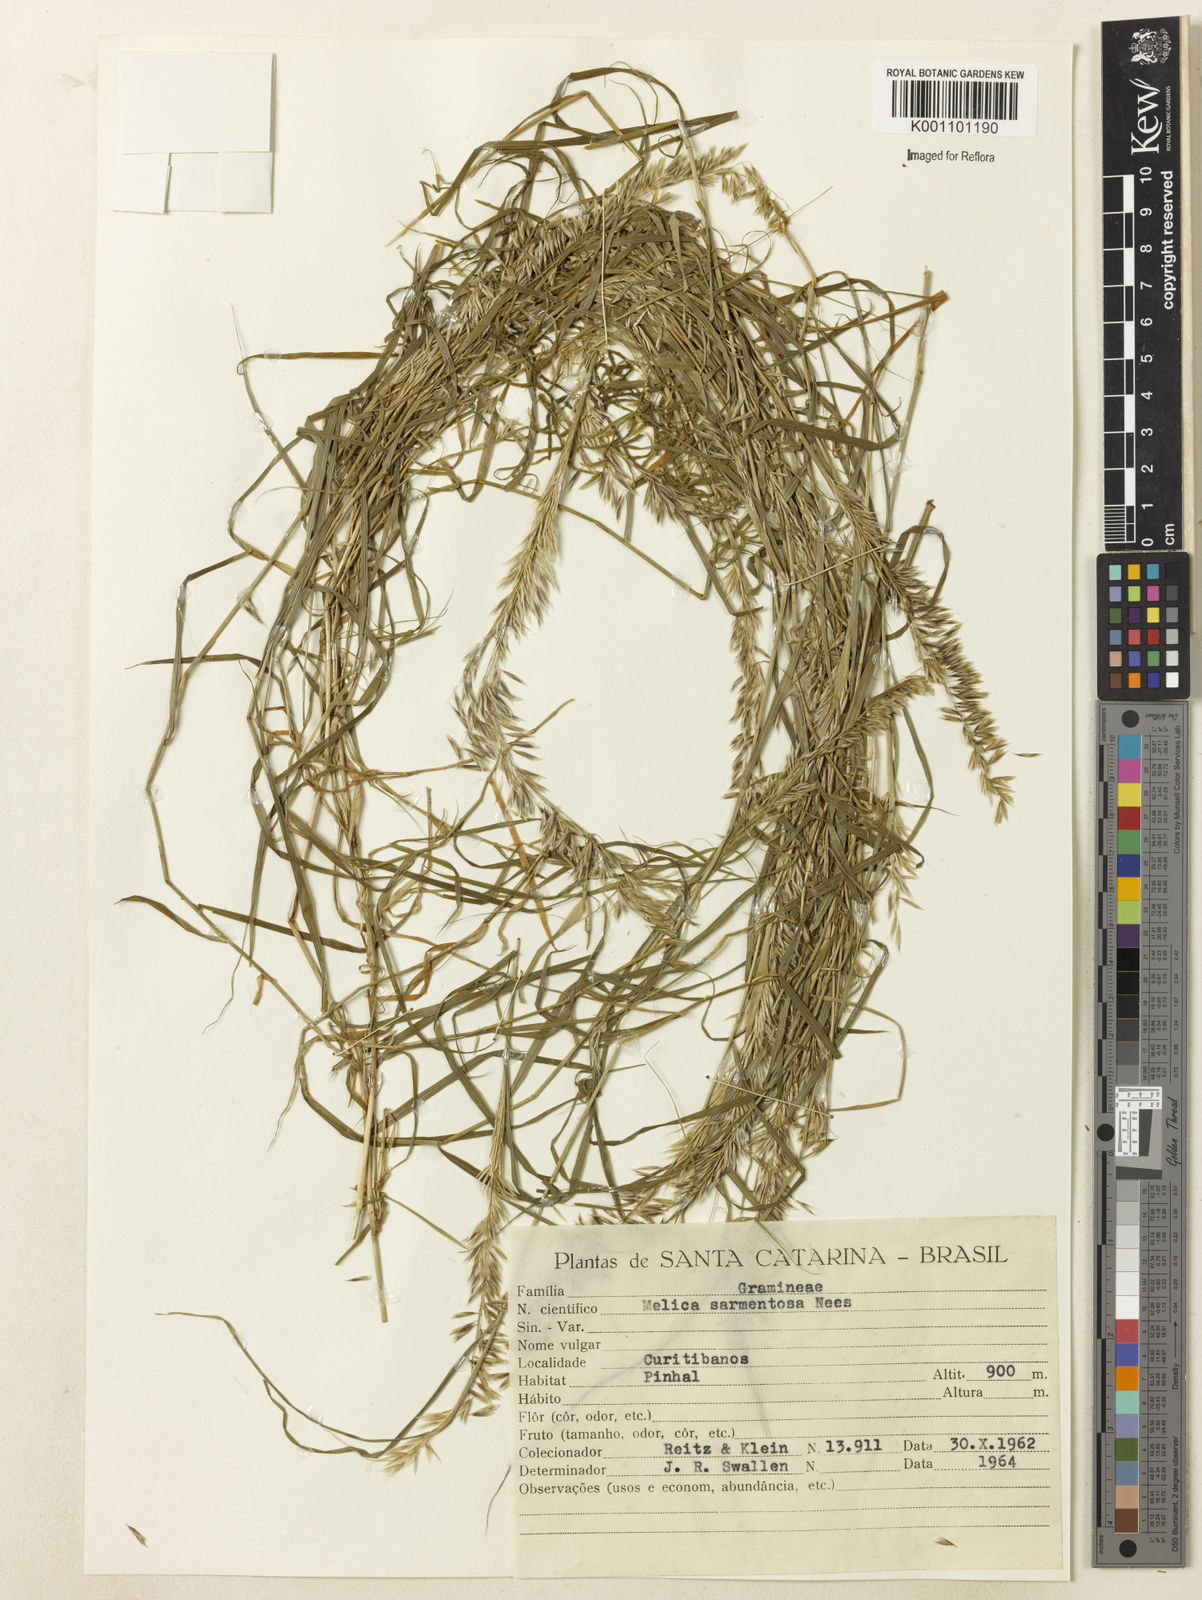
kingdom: Plantae
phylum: Tracheophyta
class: Liliopsida
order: Poales
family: Poaceae
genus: Melica
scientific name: Melica sarmentosa
